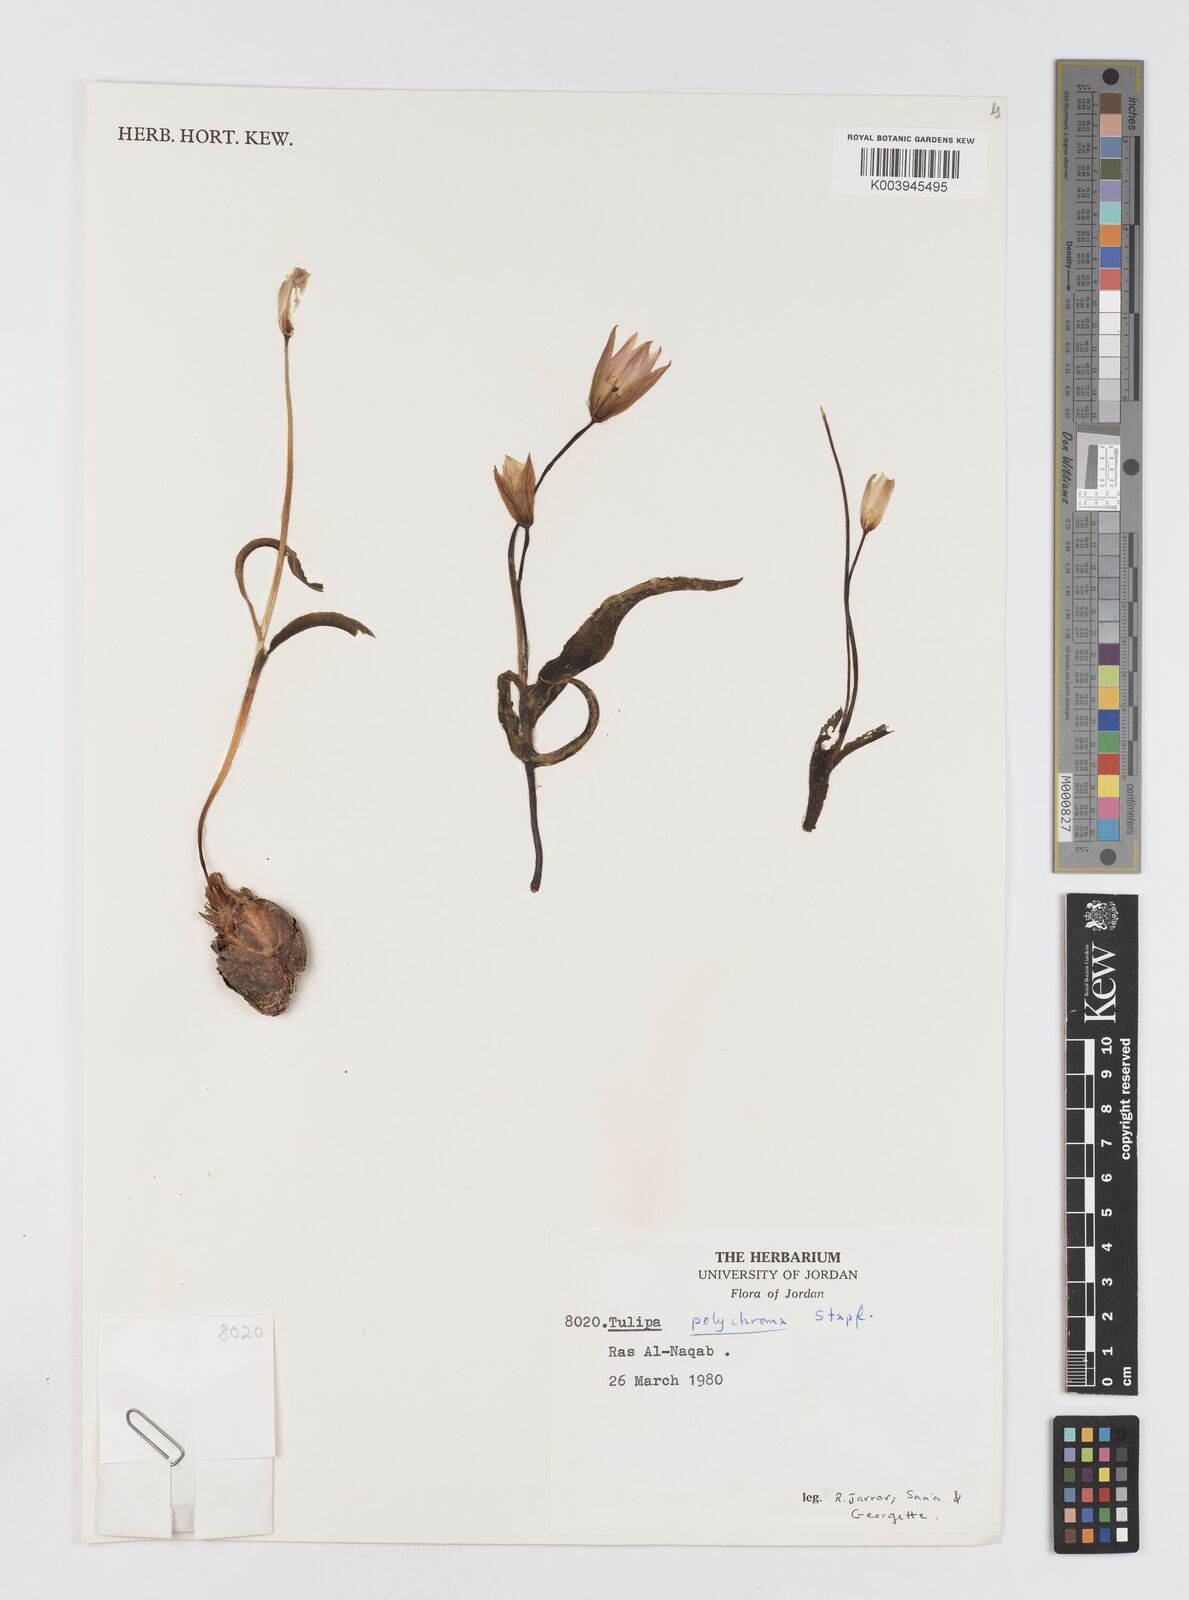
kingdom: Plantae
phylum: Tracheophyta
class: Liliopsida
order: Liliales
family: Liliaceae
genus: Tulipa
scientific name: Tulipa biflora
